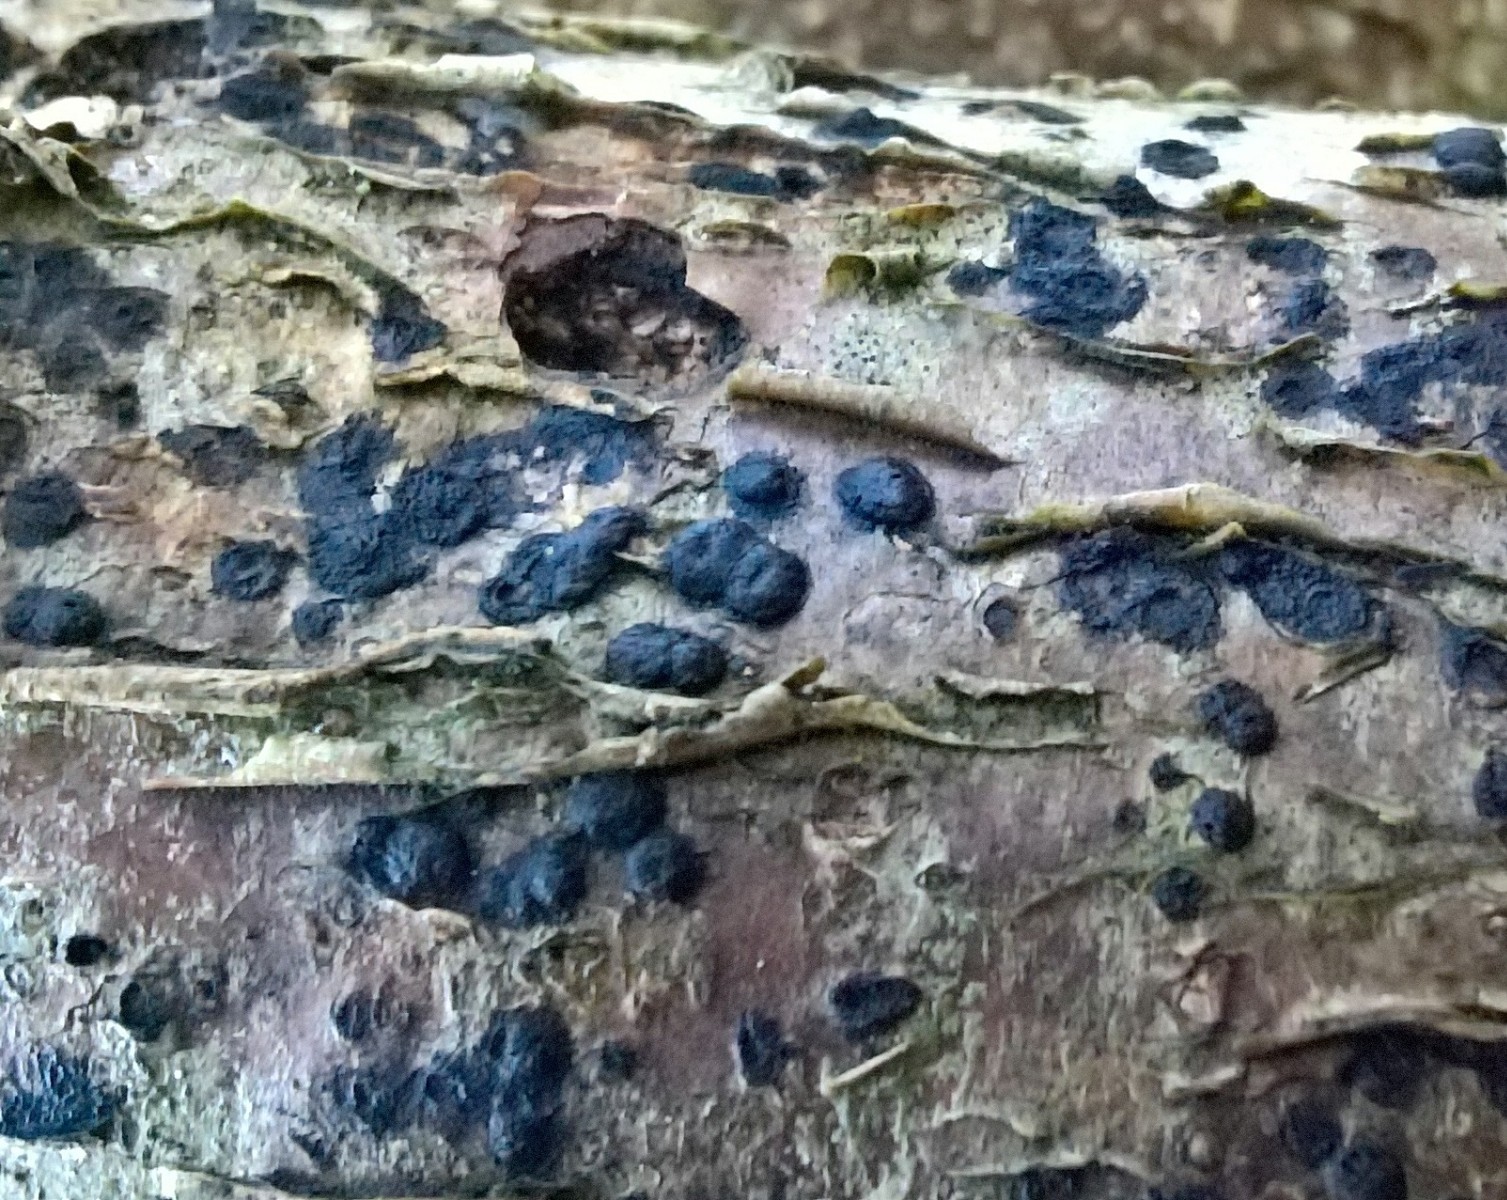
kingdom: Fungi
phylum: Ascomycota
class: Sordariomycetes
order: Xylariales
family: Hypoxylaceae
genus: Hypoxylon
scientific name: Hypoxylon fuscum
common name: kegleformet kulbær
